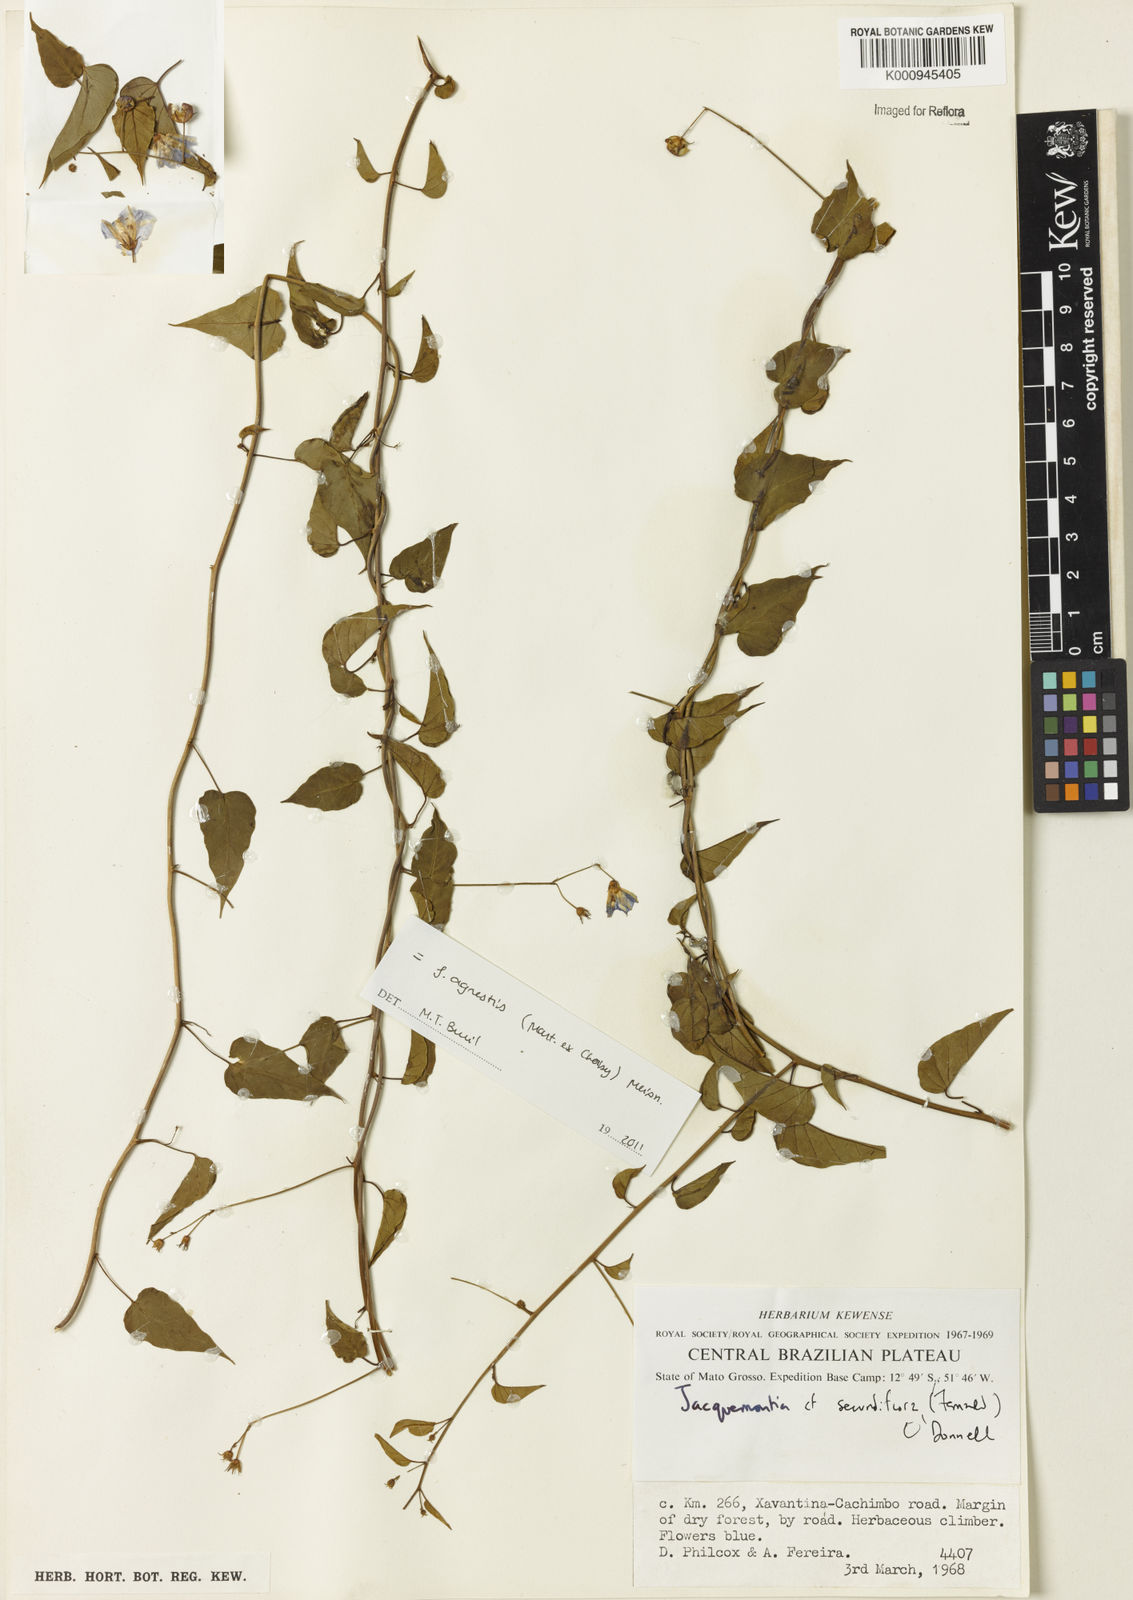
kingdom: Plantae
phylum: Tracheophyta
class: Magnoliopsida
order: Solanales
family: Convolvulaceae
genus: Jacquemontia
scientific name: Jacquemontia agrestis
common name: Midnightblue clustervine
